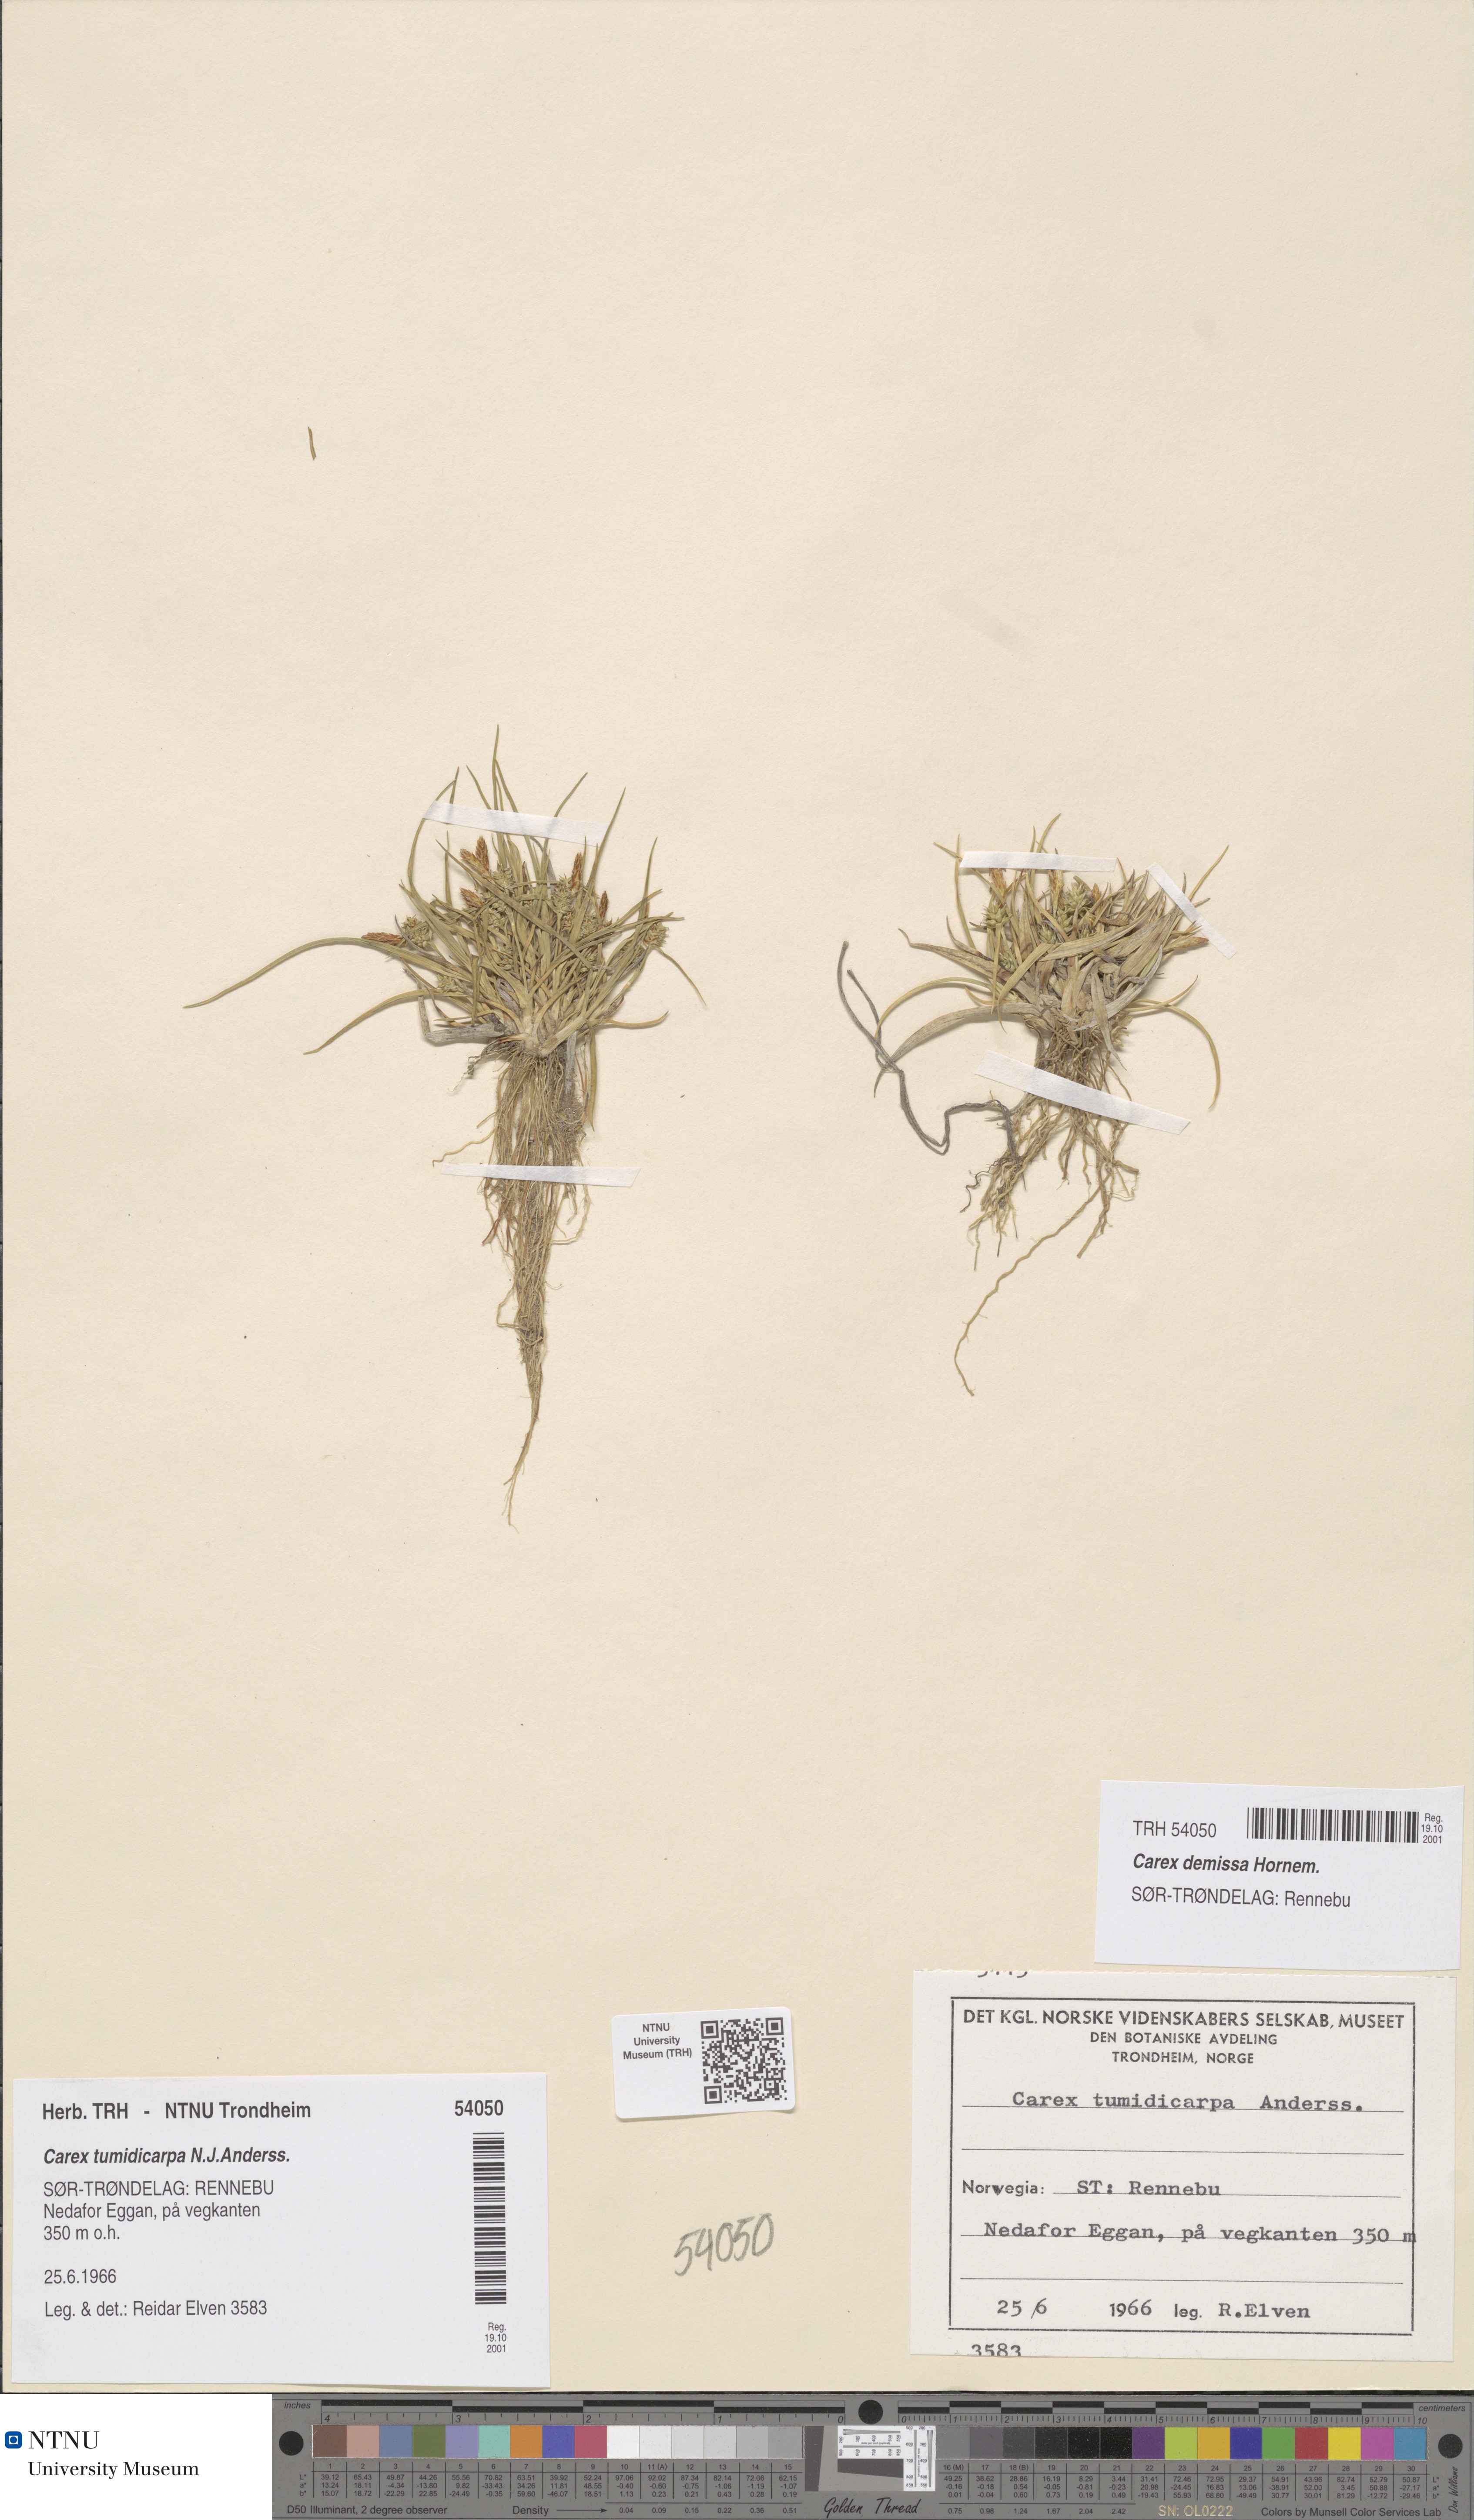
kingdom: Plantae
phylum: Tracheophyta
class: Liliopsida
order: Poales
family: Cyperaceae
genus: Carex
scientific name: Carex demissa
